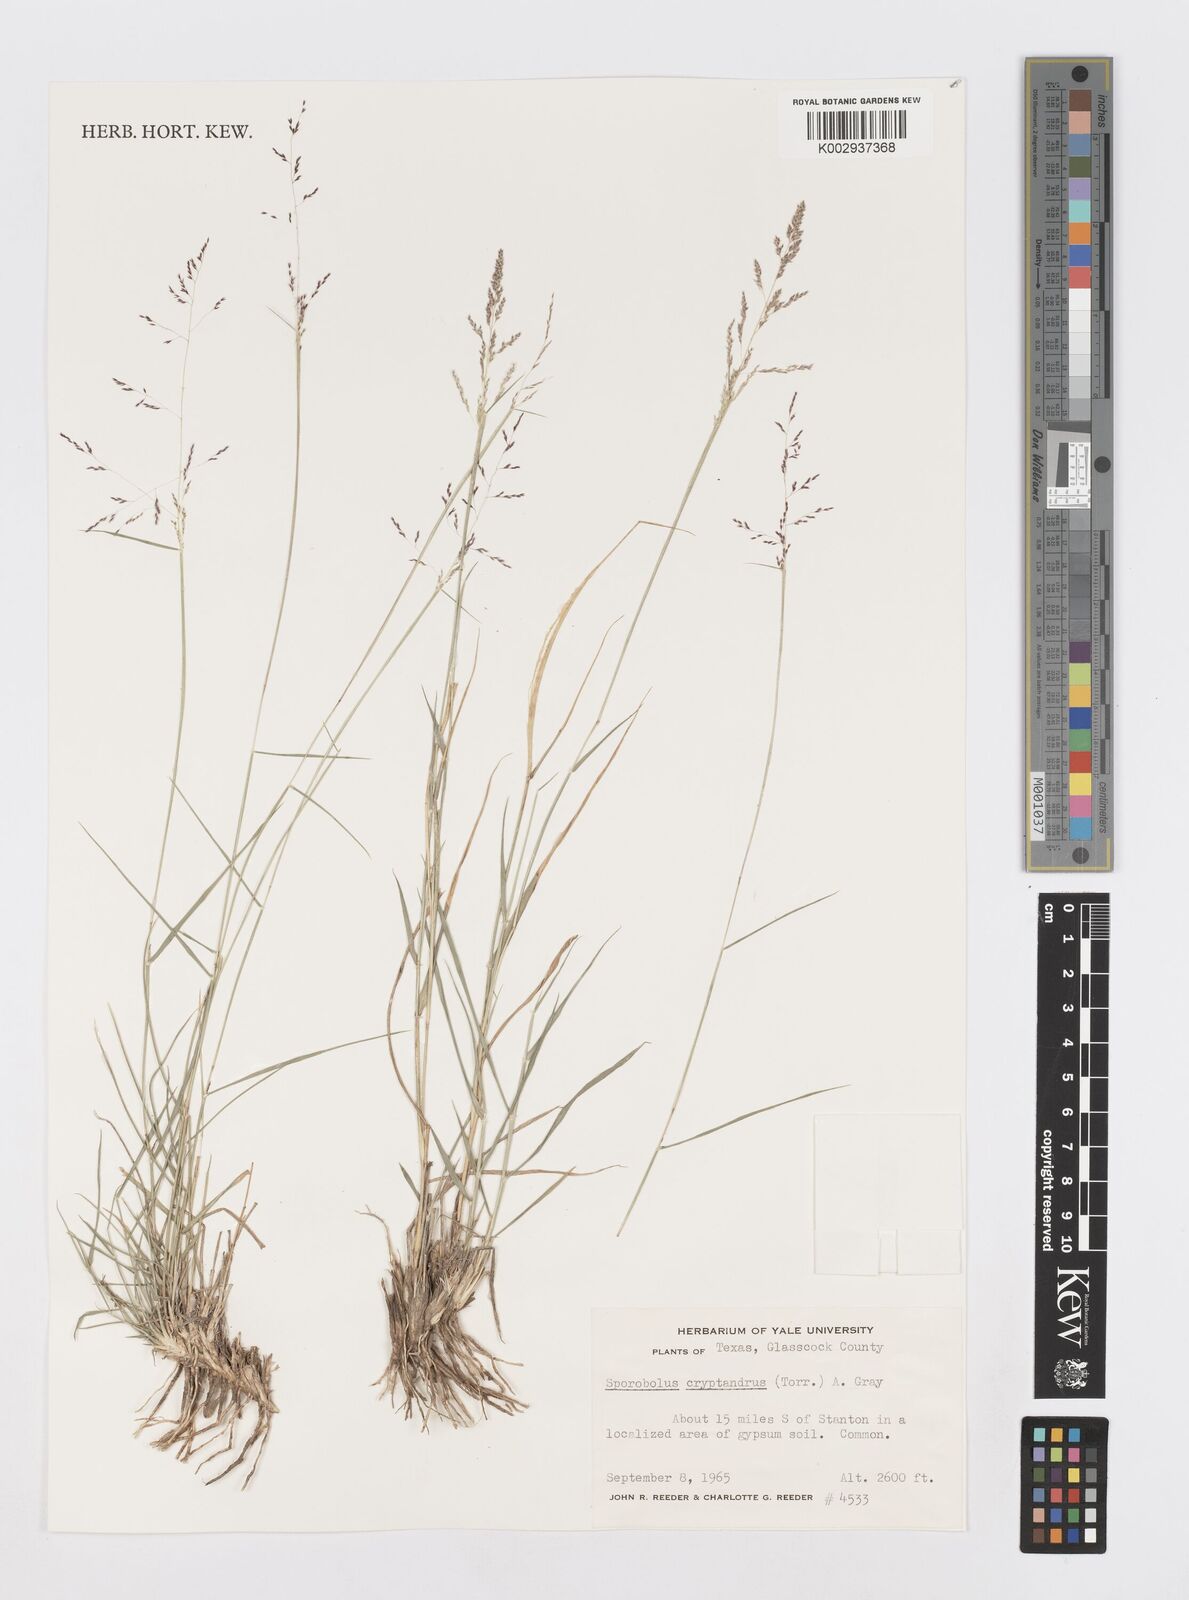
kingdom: Plantae
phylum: Tracheophyta
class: Liliopsida
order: Poales
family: Poaceae
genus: Sporobolus
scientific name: Sporobolus cryptandrus
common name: Sand dropseed
